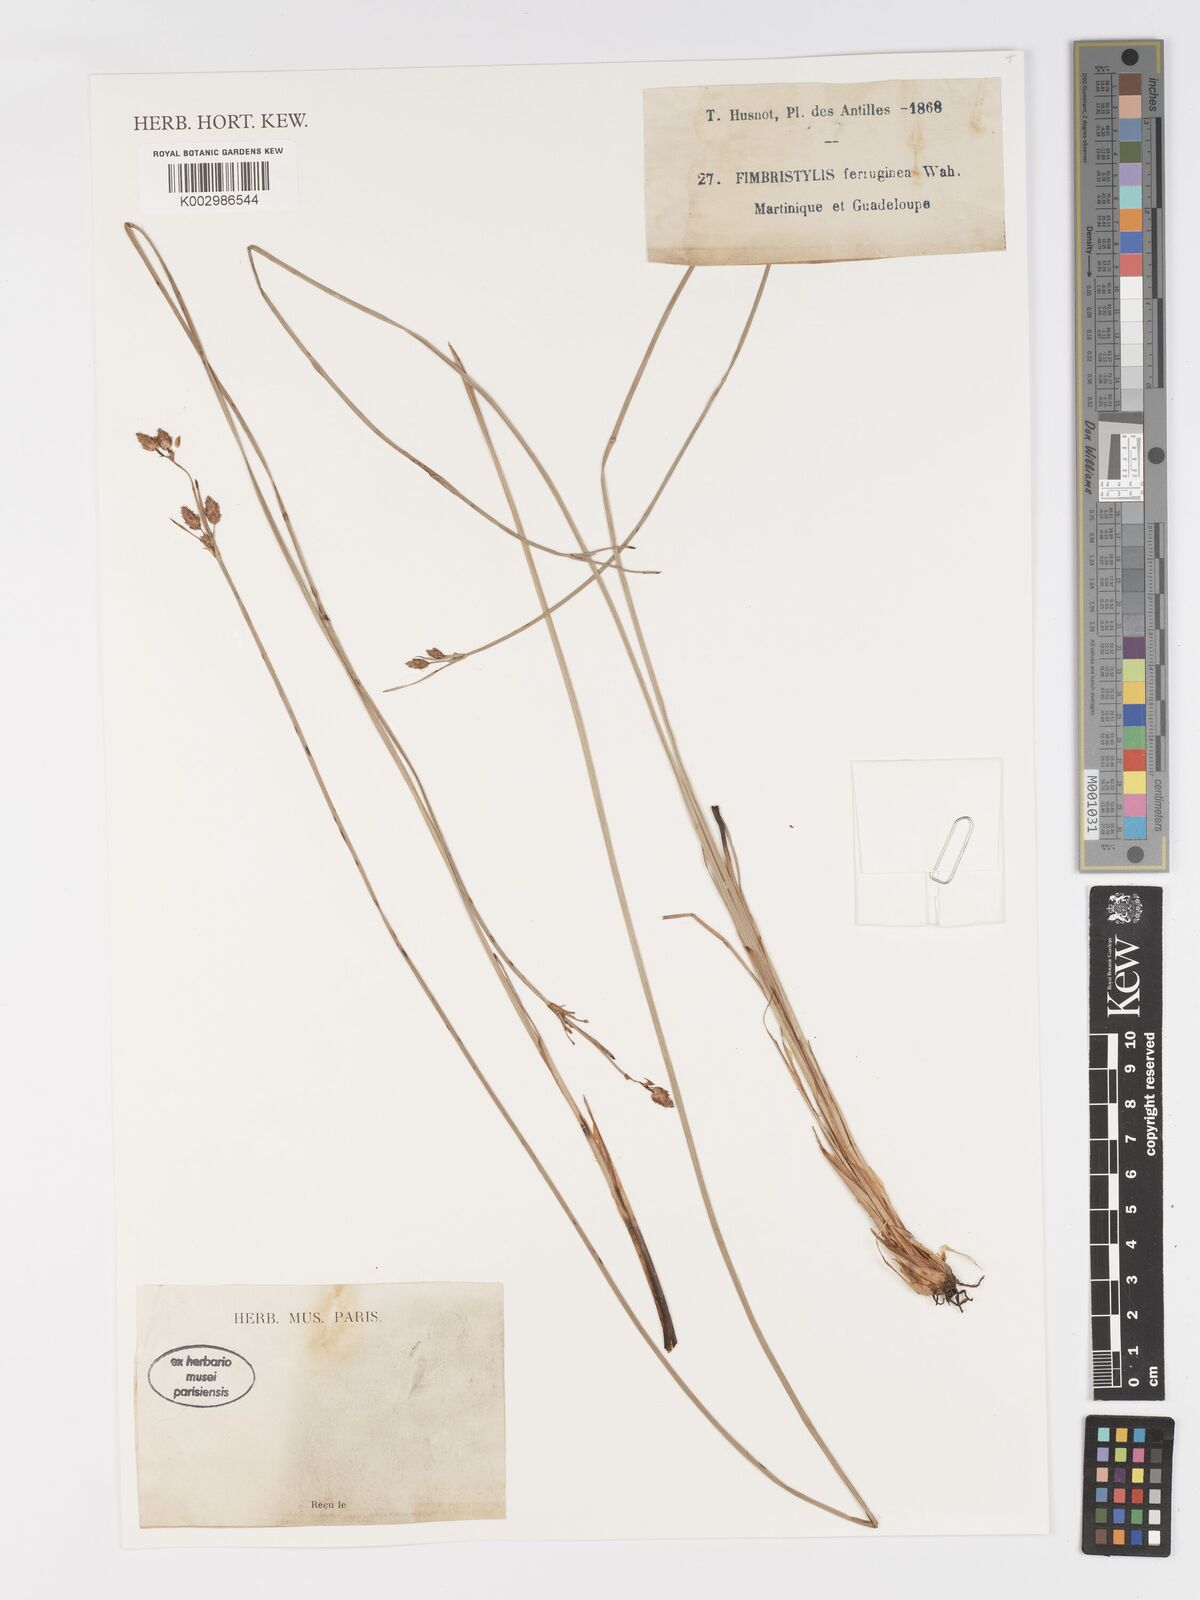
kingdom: Plantae
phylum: Tracheophyta
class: Liliopsida
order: Poales
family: Cyperaceae
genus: Fimbristylis
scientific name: Fimbristylis ferruginea
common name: West indian fimbry
